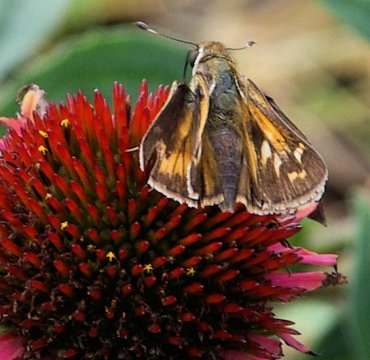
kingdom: Animalia
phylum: Arthropoda
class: Insecta
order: Lepidoptera
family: Hesperiidae
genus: Atalopedes
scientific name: Atalopedes campestris
